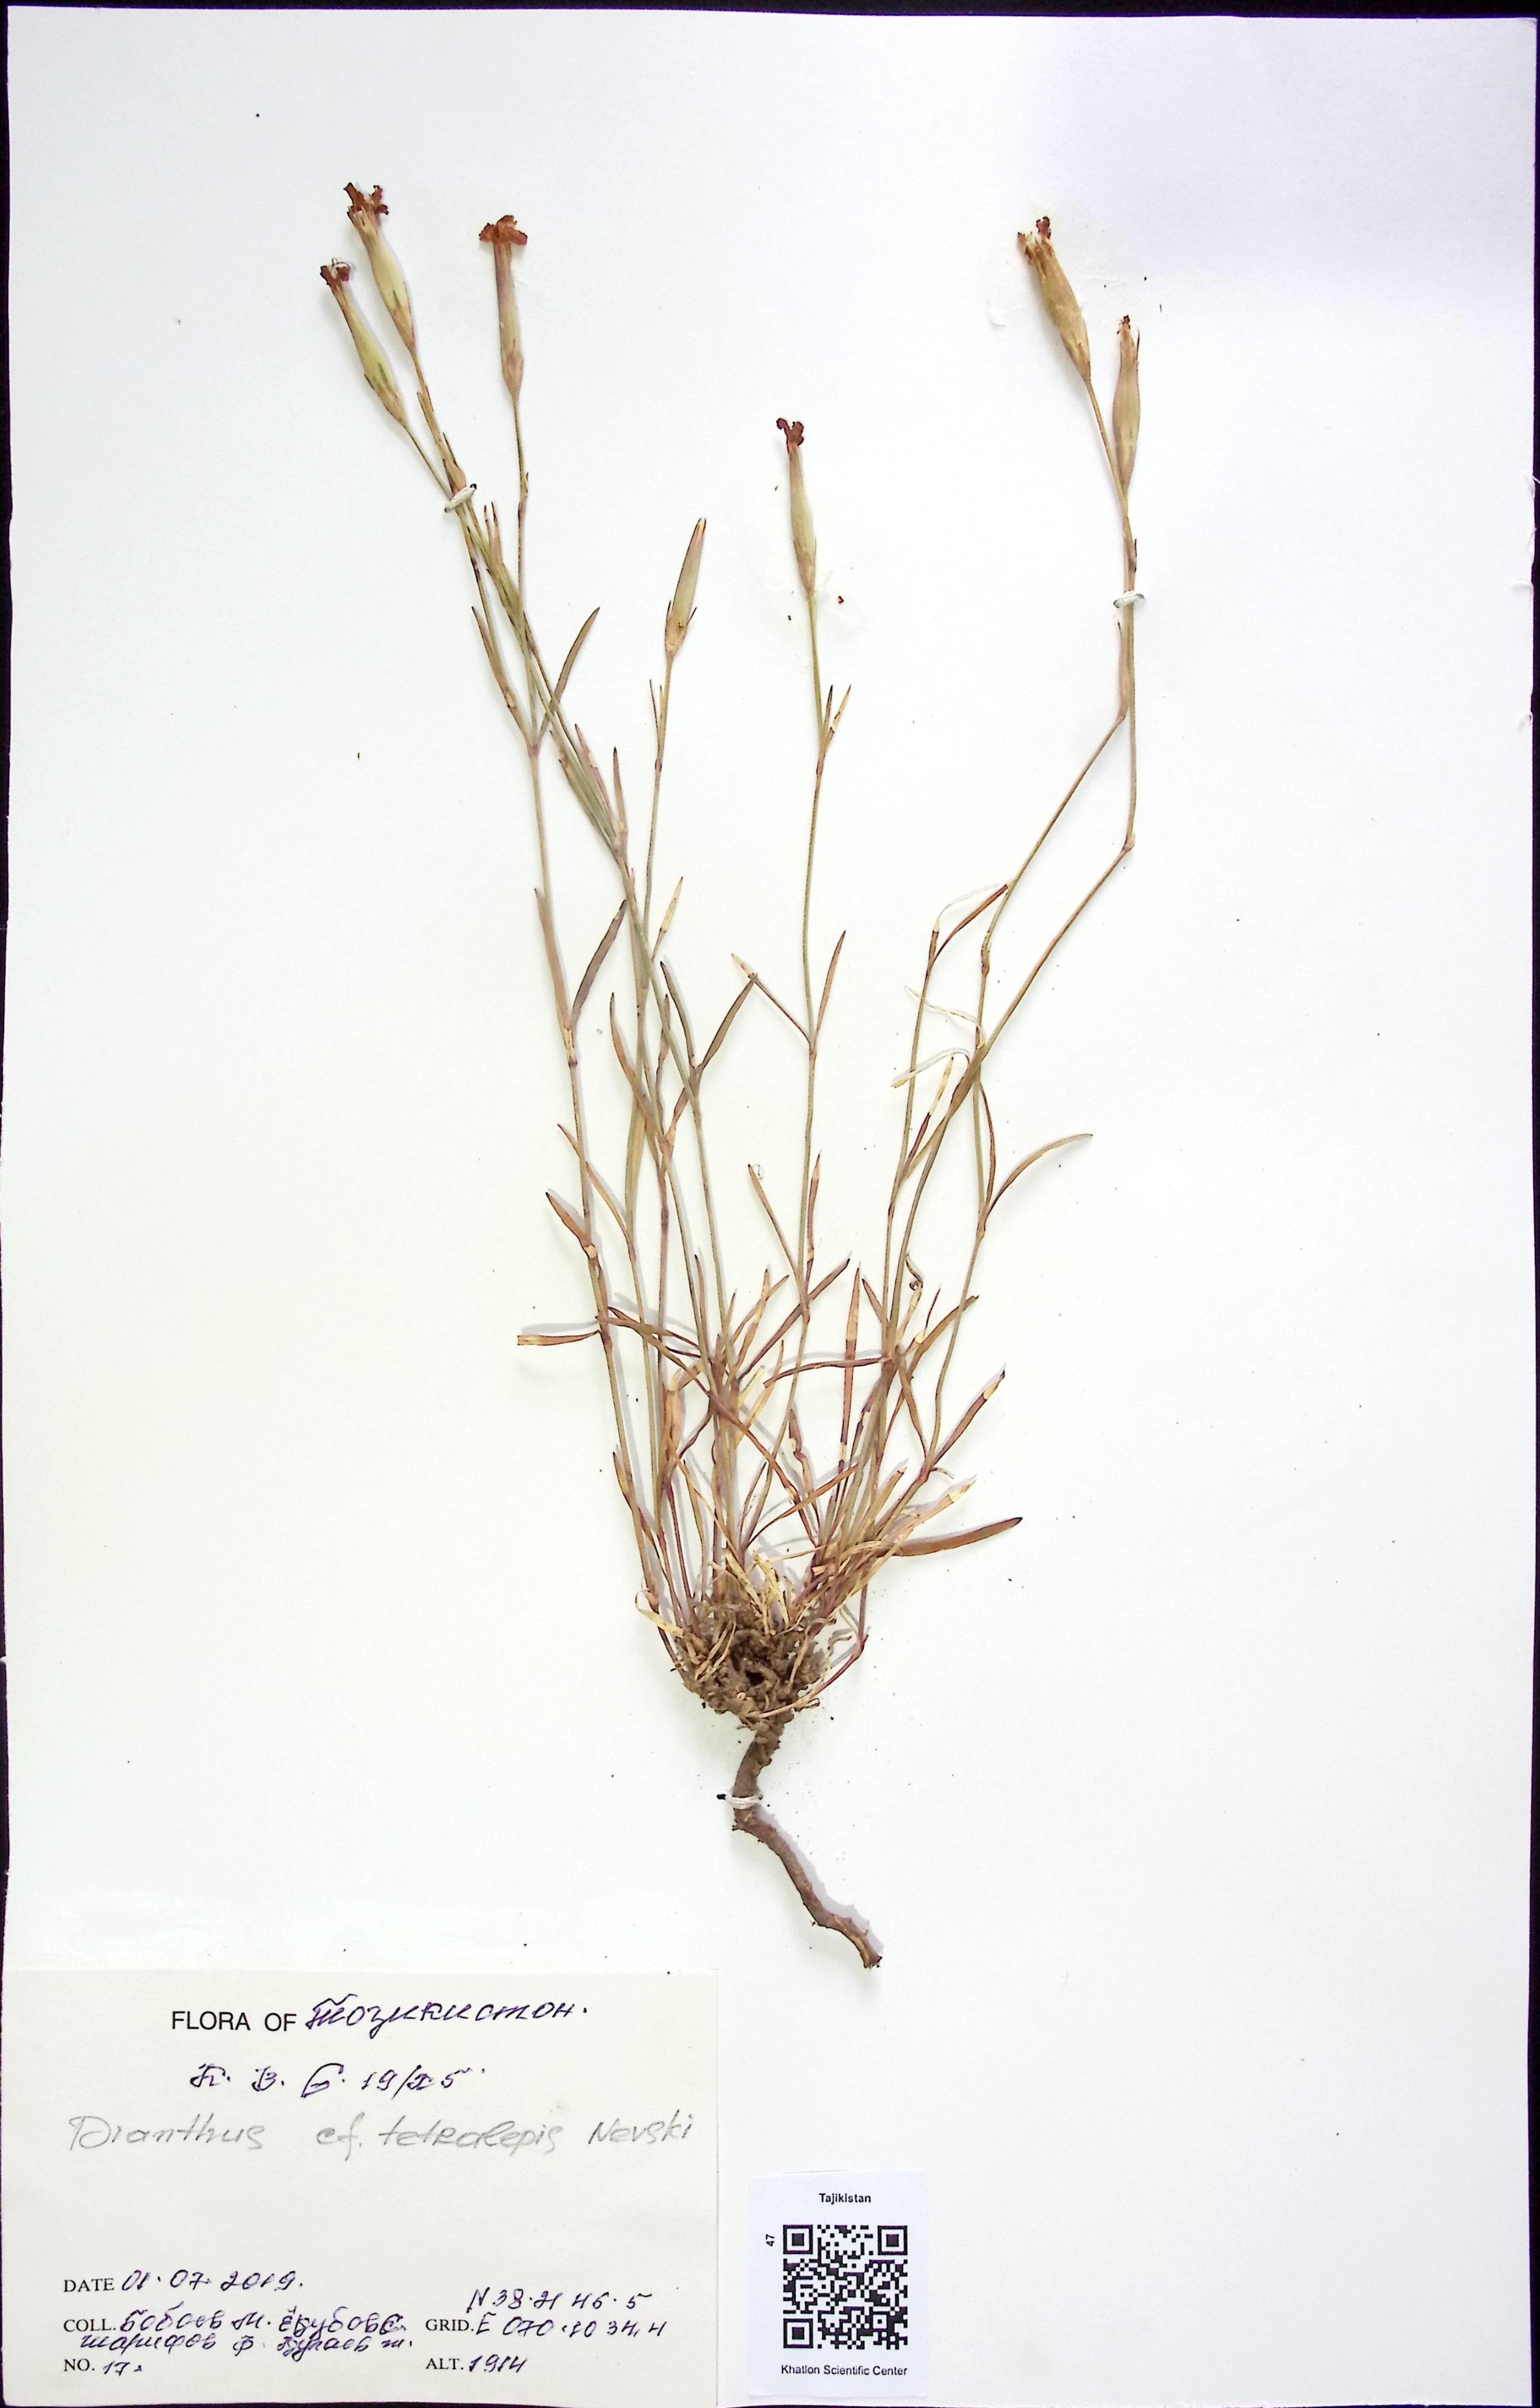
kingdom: Plantae
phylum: Tracheophyta
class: Magnoliopsida
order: Caryophyllales
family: Caryophyllaceae
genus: Dianthus
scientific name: Dianthus
